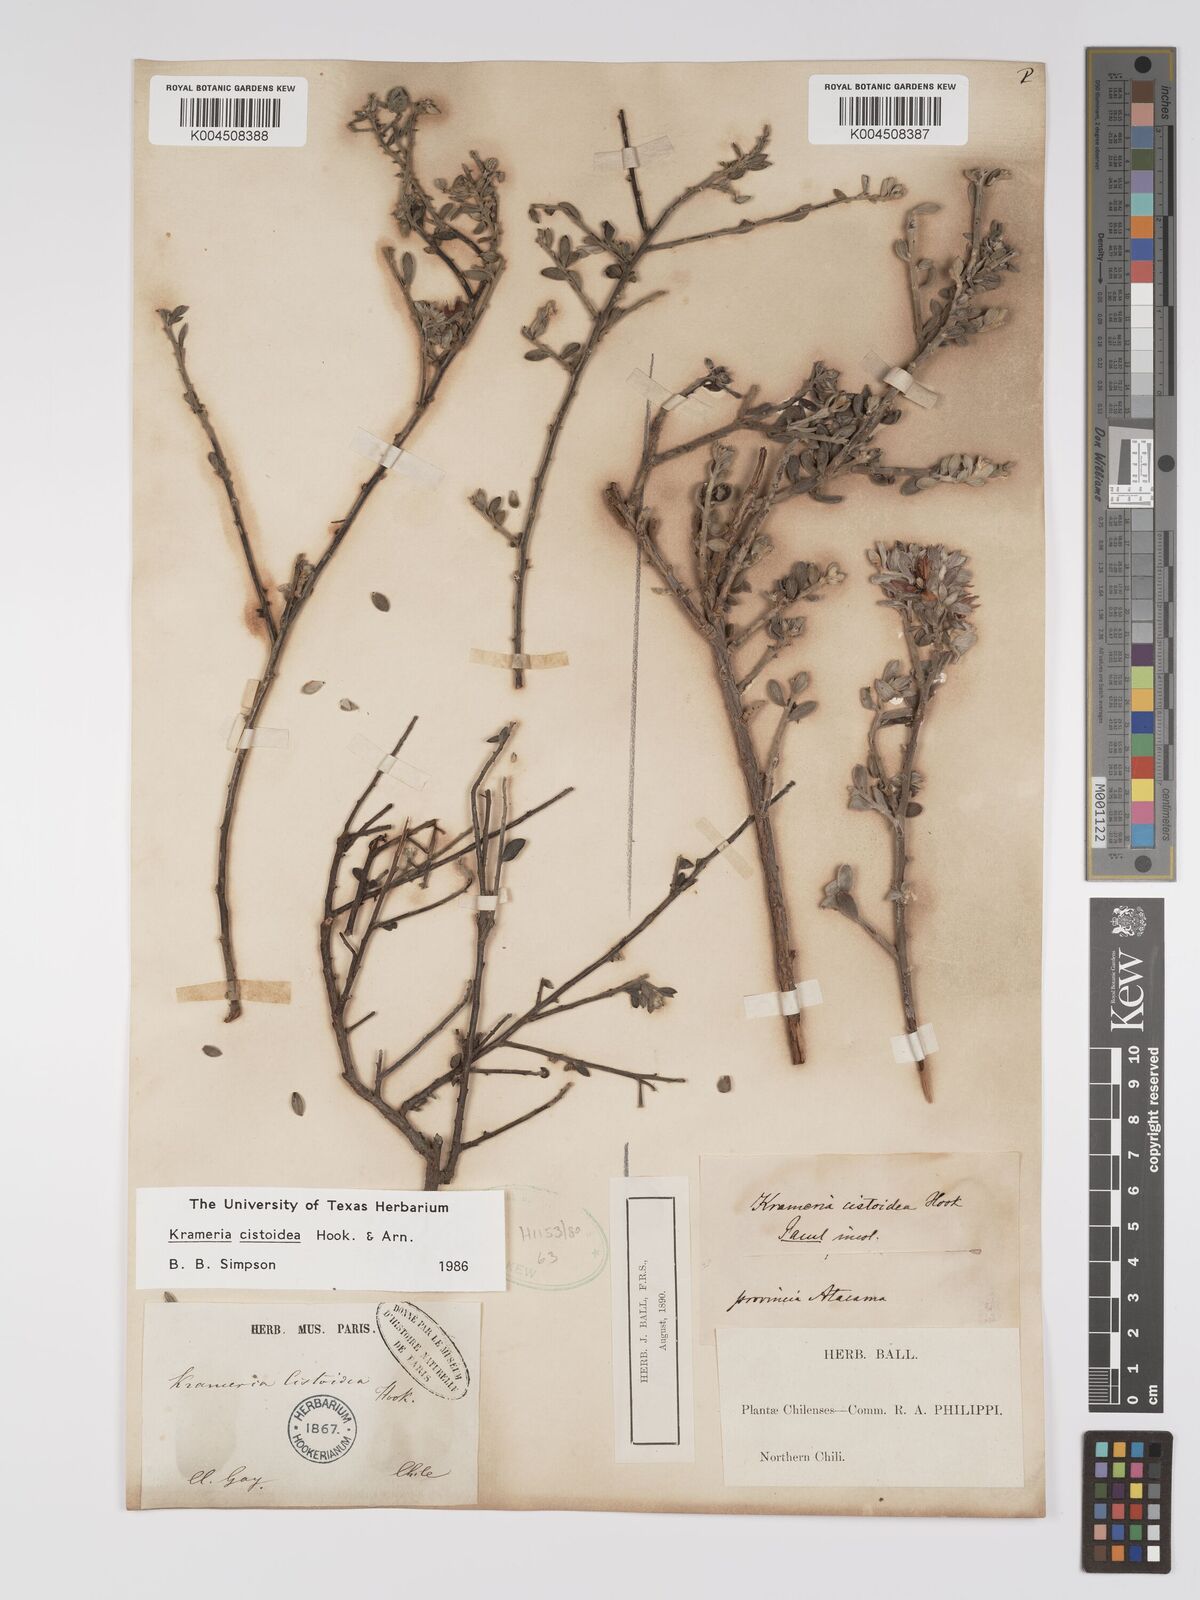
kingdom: Plantae
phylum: Tracheophyta
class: Magnoliopsida
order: Zygophyllales
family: Krameriaceae
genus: Krameria
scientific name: Krameria cistoidea
